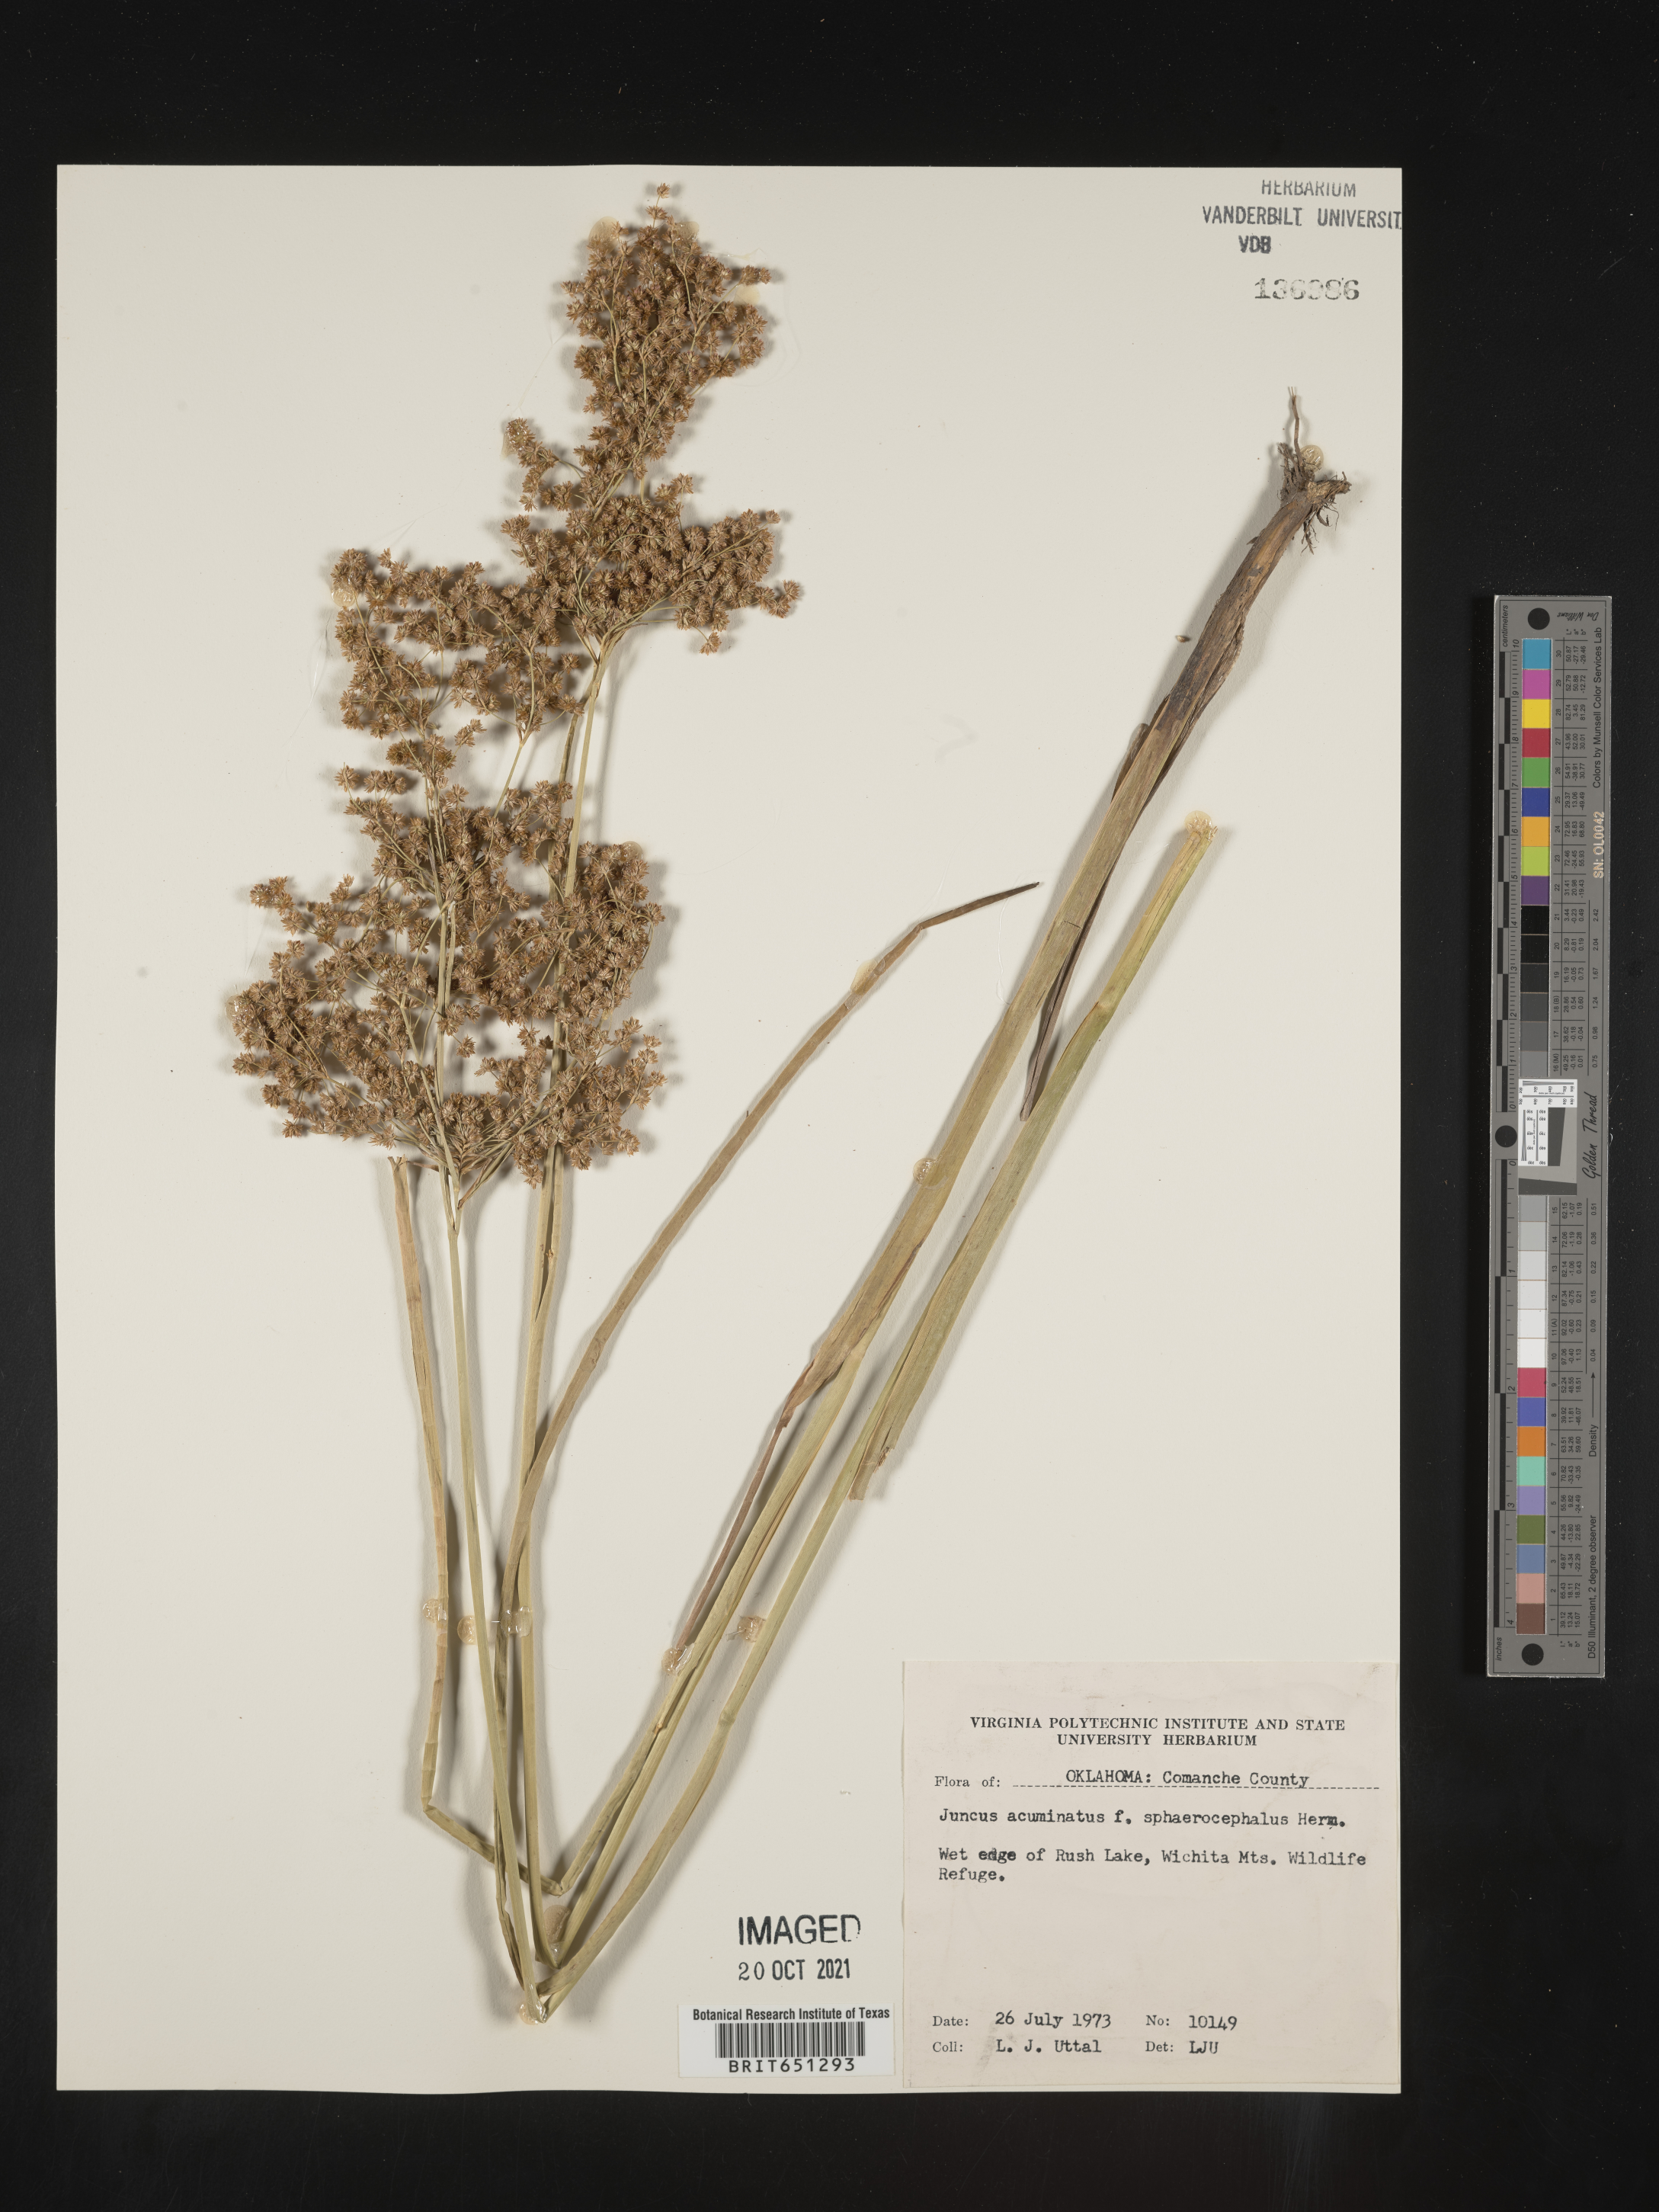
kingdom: Plantae
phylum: Tracheophyta
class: Liliopsida
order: Poales
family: Juncaceae
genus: Juncus
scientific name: Juncus acuminatus
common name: Knotty-leaved rush
